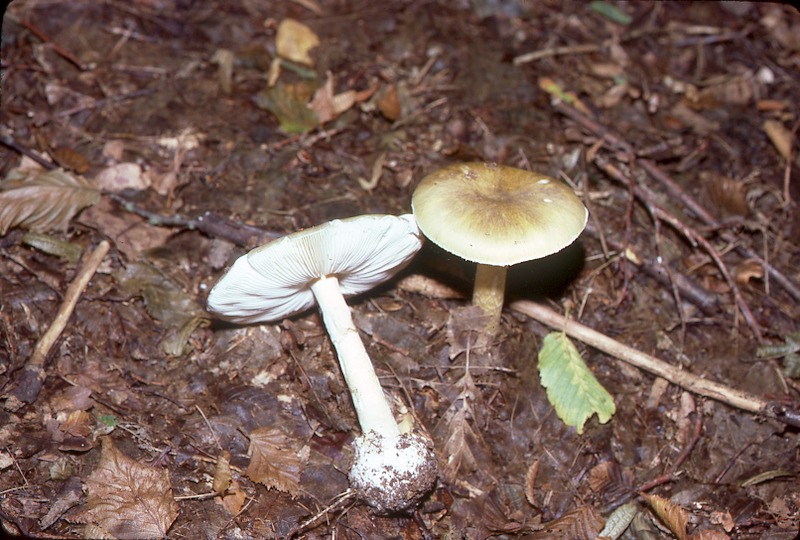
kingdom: Fungi
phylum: Basidiomycota
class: Agaricomycetes
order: Agaricales
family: Amanitaceae
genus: Amanita
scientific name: Amanita phalloides
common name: Death cap
